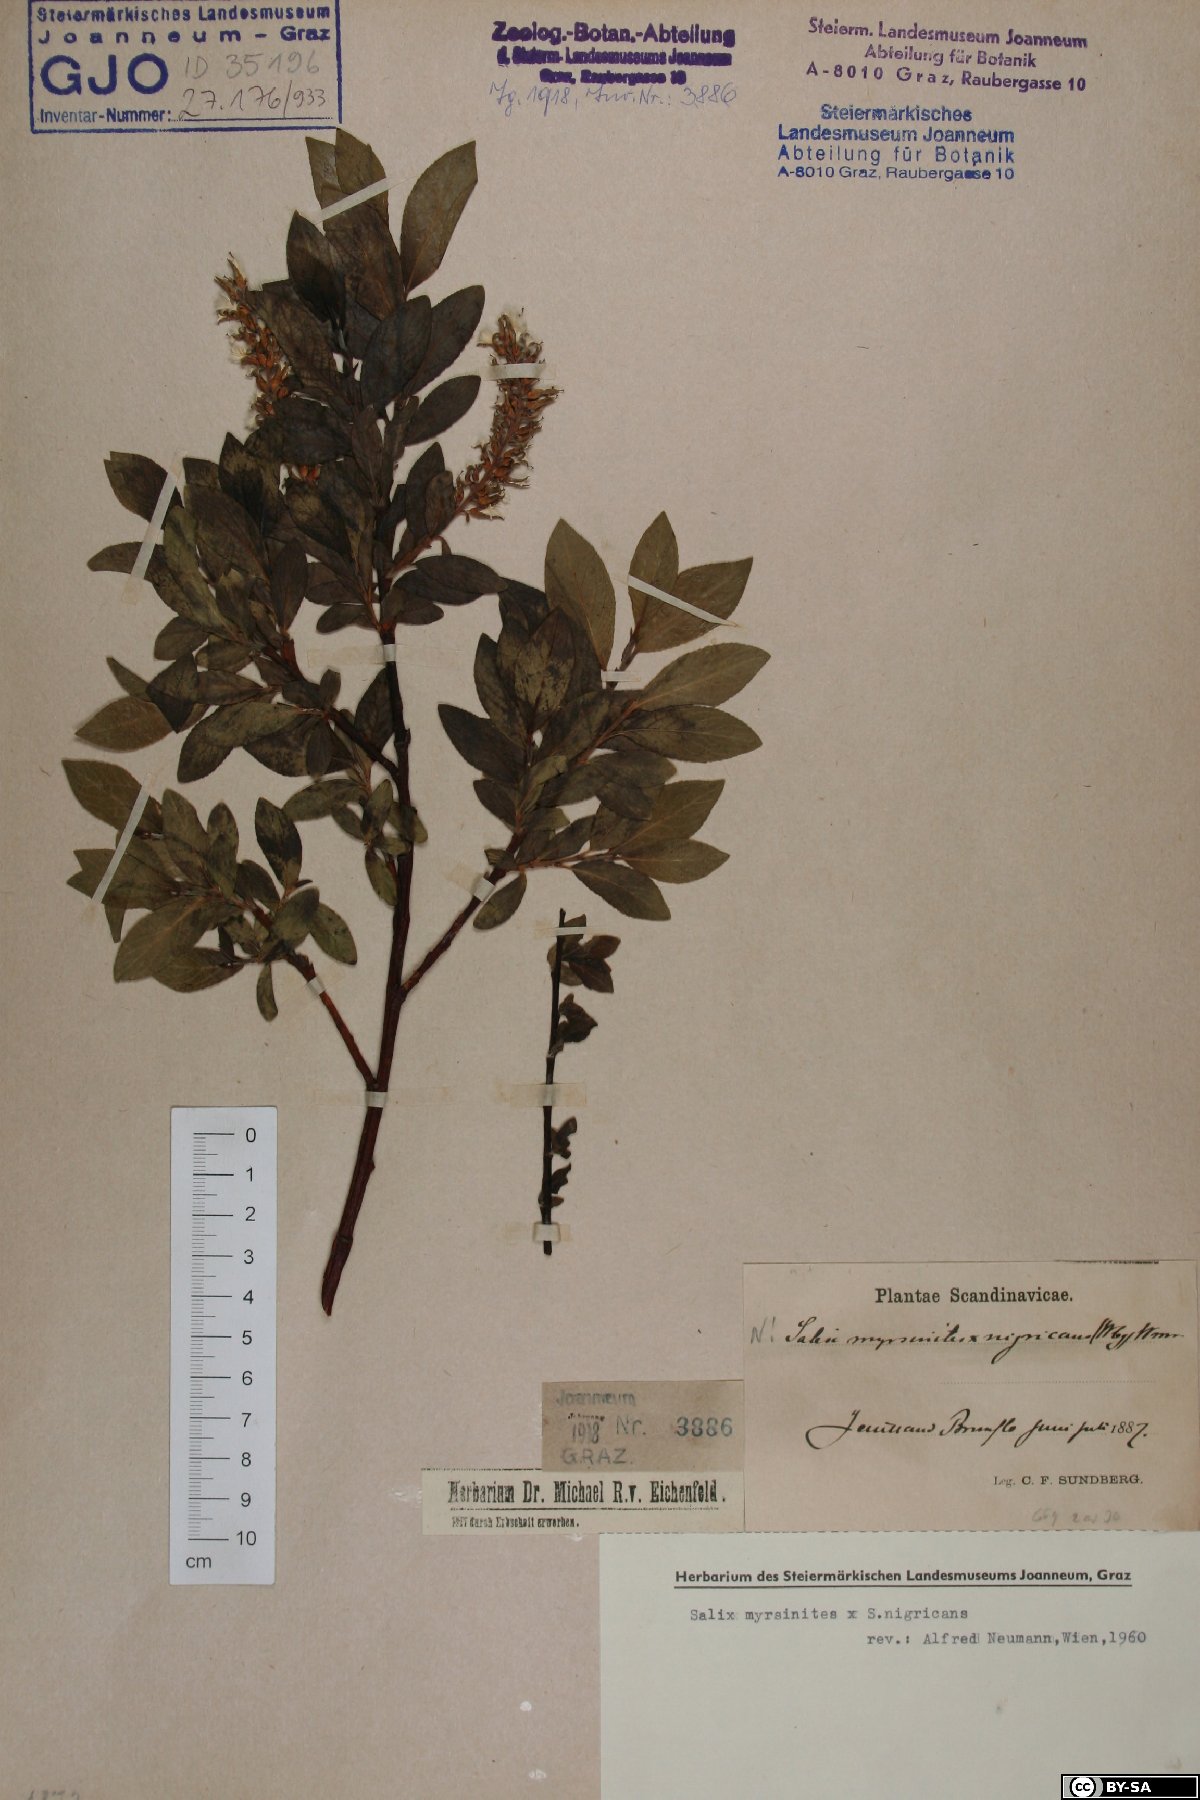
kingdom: Plantae
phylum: Tracheophyta
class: Magnoliopsida
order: Malpighiales
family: Salicaceae
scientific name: Salicaceae
